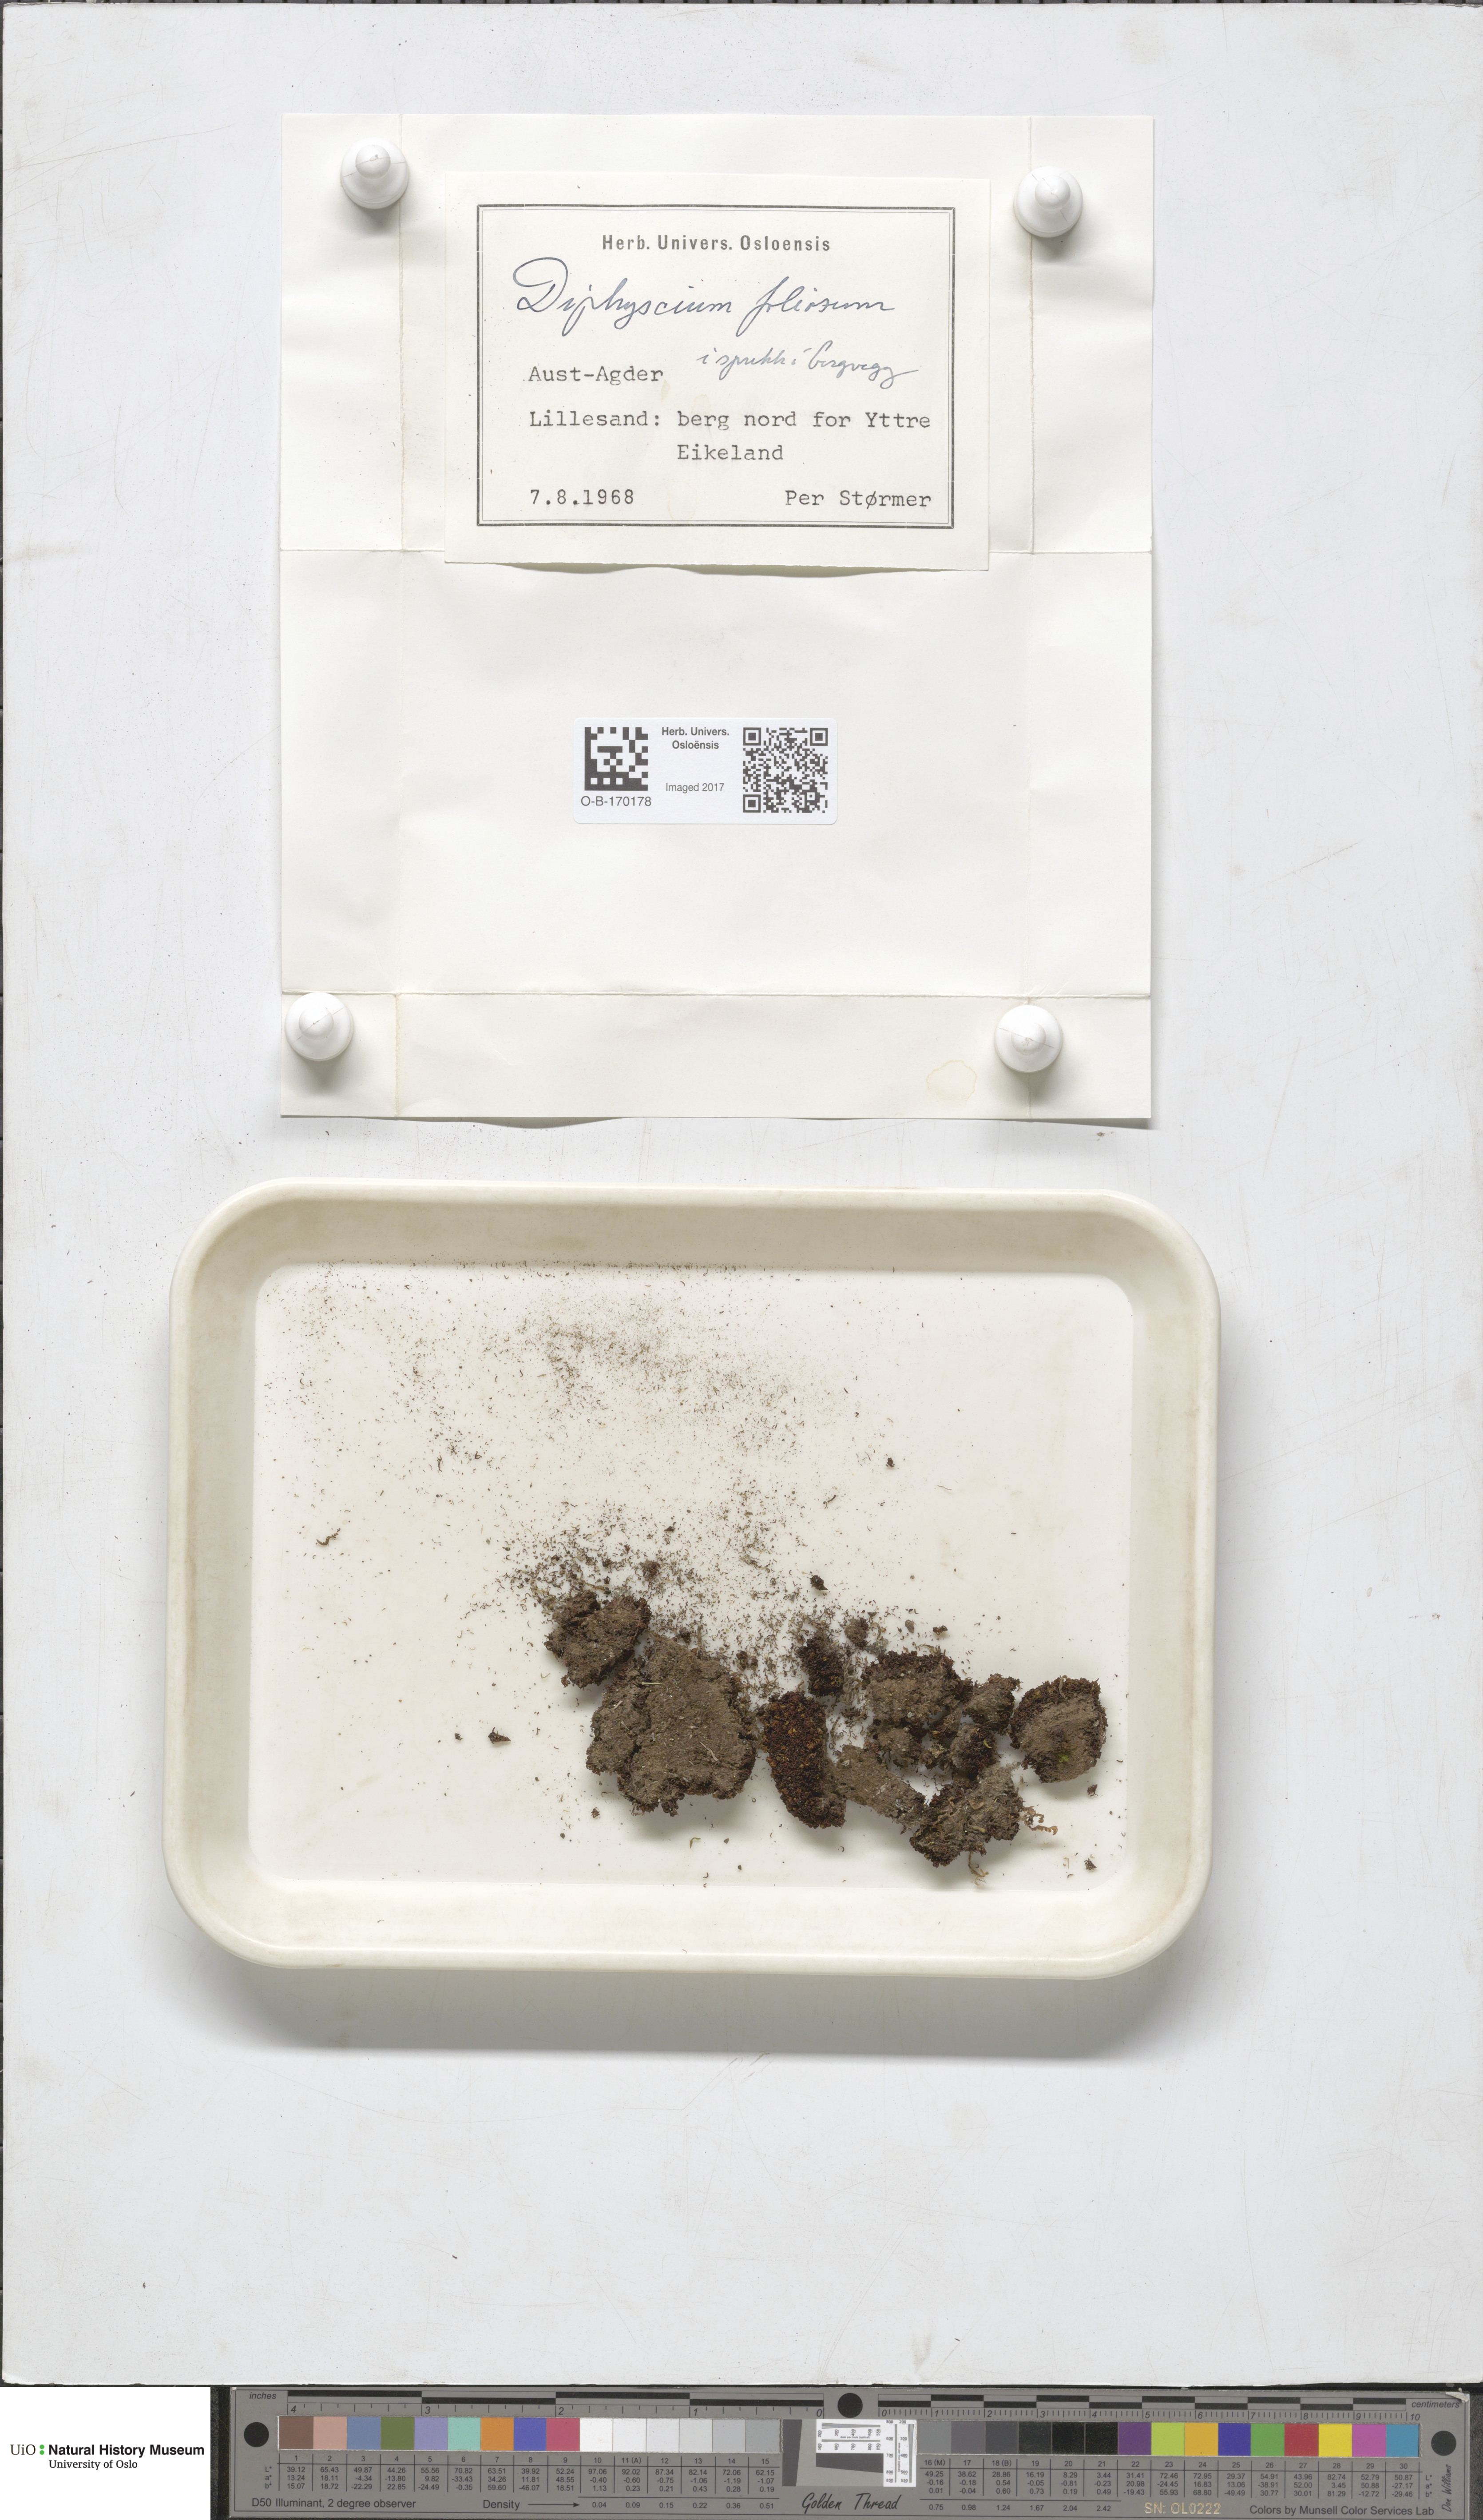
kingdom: Plantae
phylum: Bryophyta
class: Bryopsida
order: Diphysciales
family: Diphysciaceae
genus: Diphyscium
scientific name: Diphyscium foliosum
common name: Nut moss
